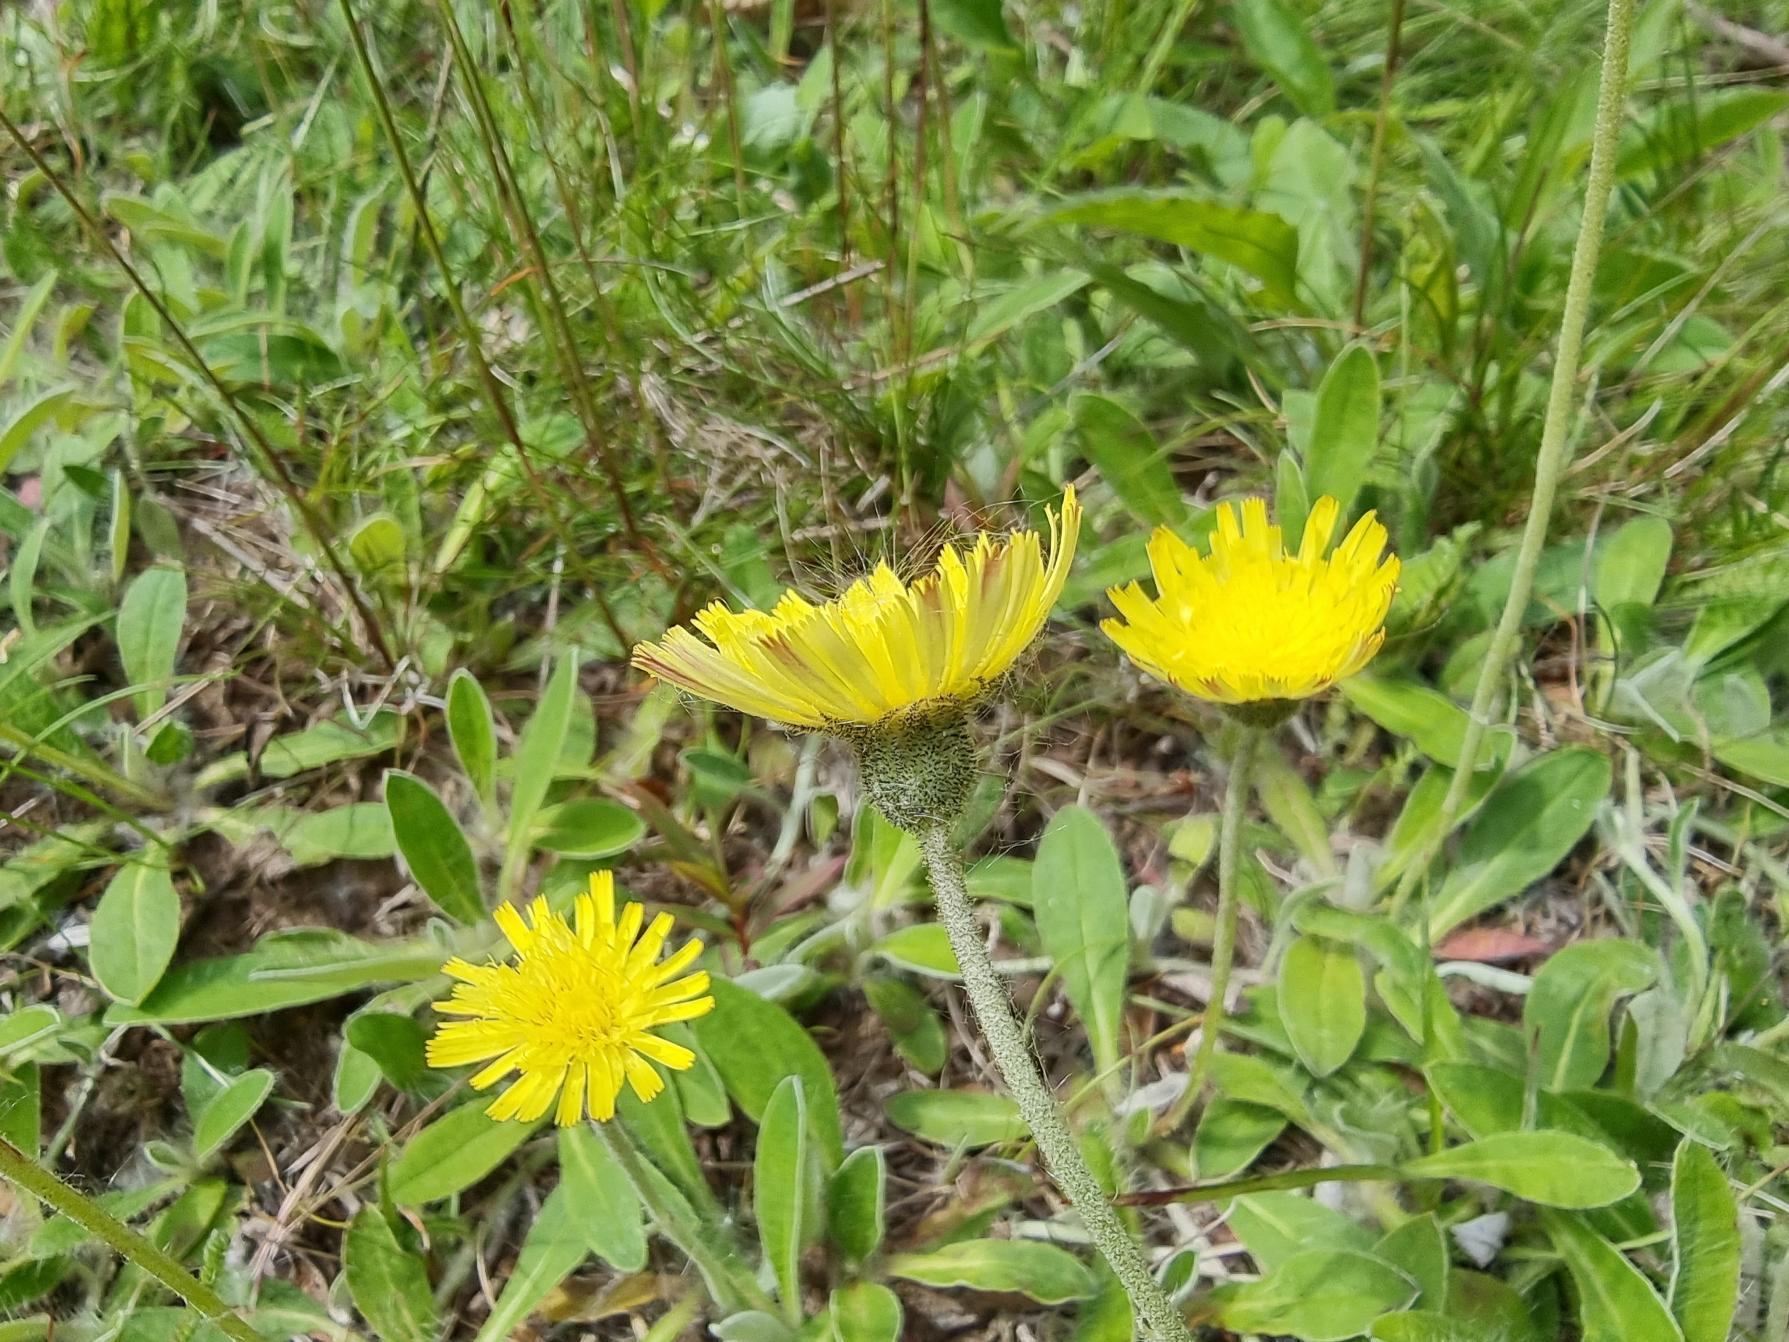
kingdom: Plantae
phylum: Tracheophyta
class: Magnoliopsida
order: Asterales
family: Asteraceae
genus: Pilosella
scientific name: Pilosella officinarum
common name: Håret høgeurt
